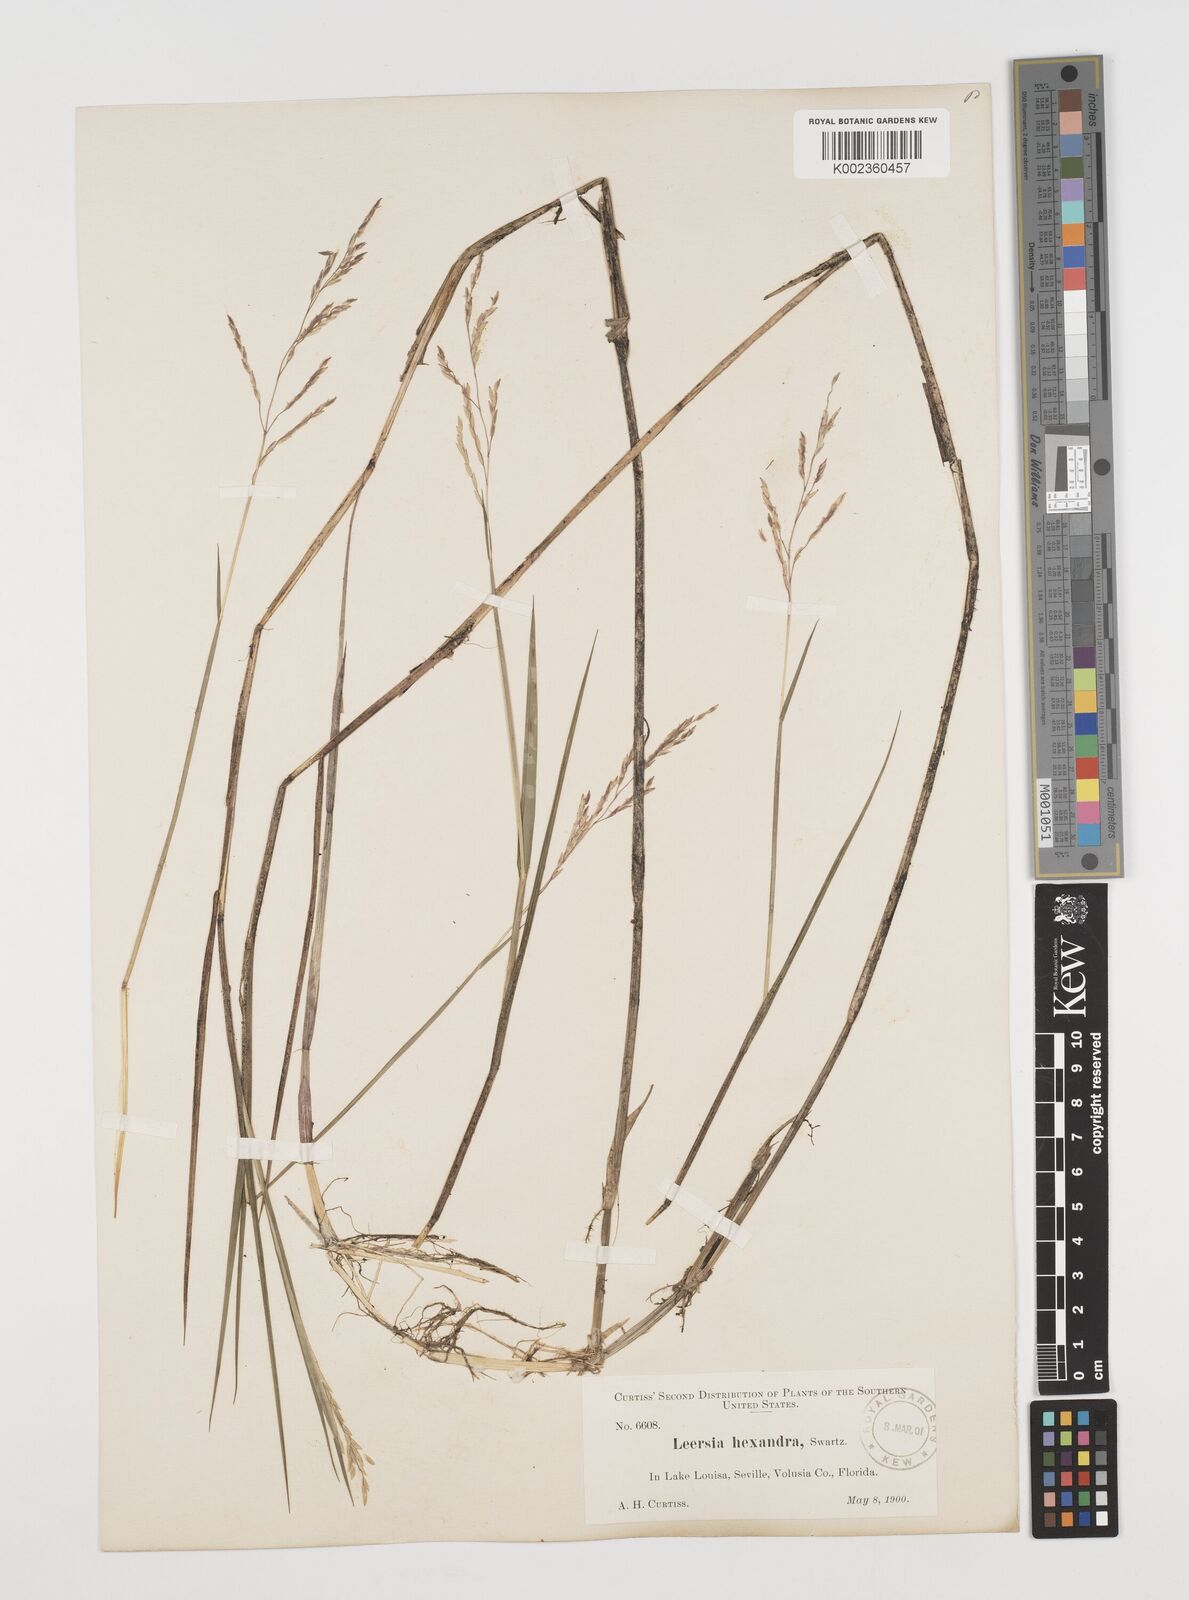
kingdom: Plantae
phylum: Tracheophyta
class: Liliopsida
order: Poales
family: Poaceae
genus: Leersia
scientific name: Leersia hexandra
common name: Southern cut grass
